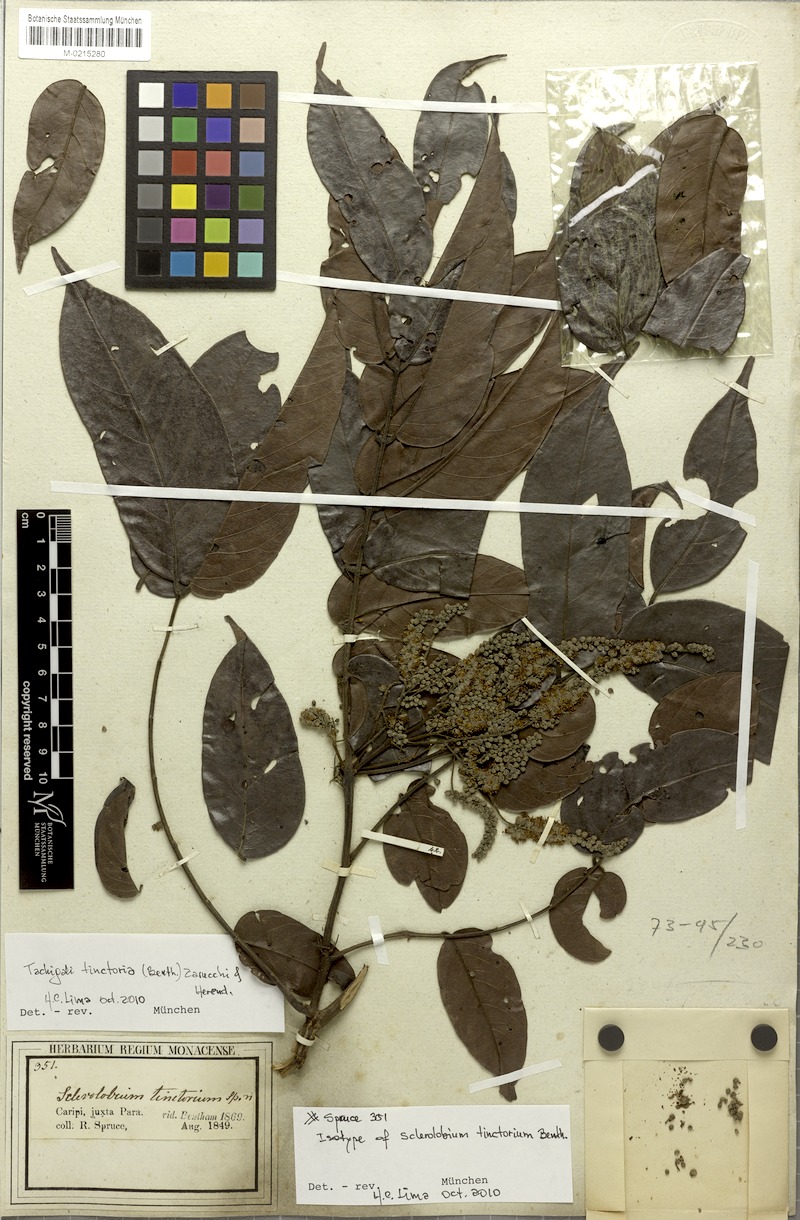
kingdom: Plantae
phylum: Tracheophyta
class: Magnoliopsida
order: Fabales
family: Fabaceae
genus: Tachigali
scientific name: Tachigali tinctoria
